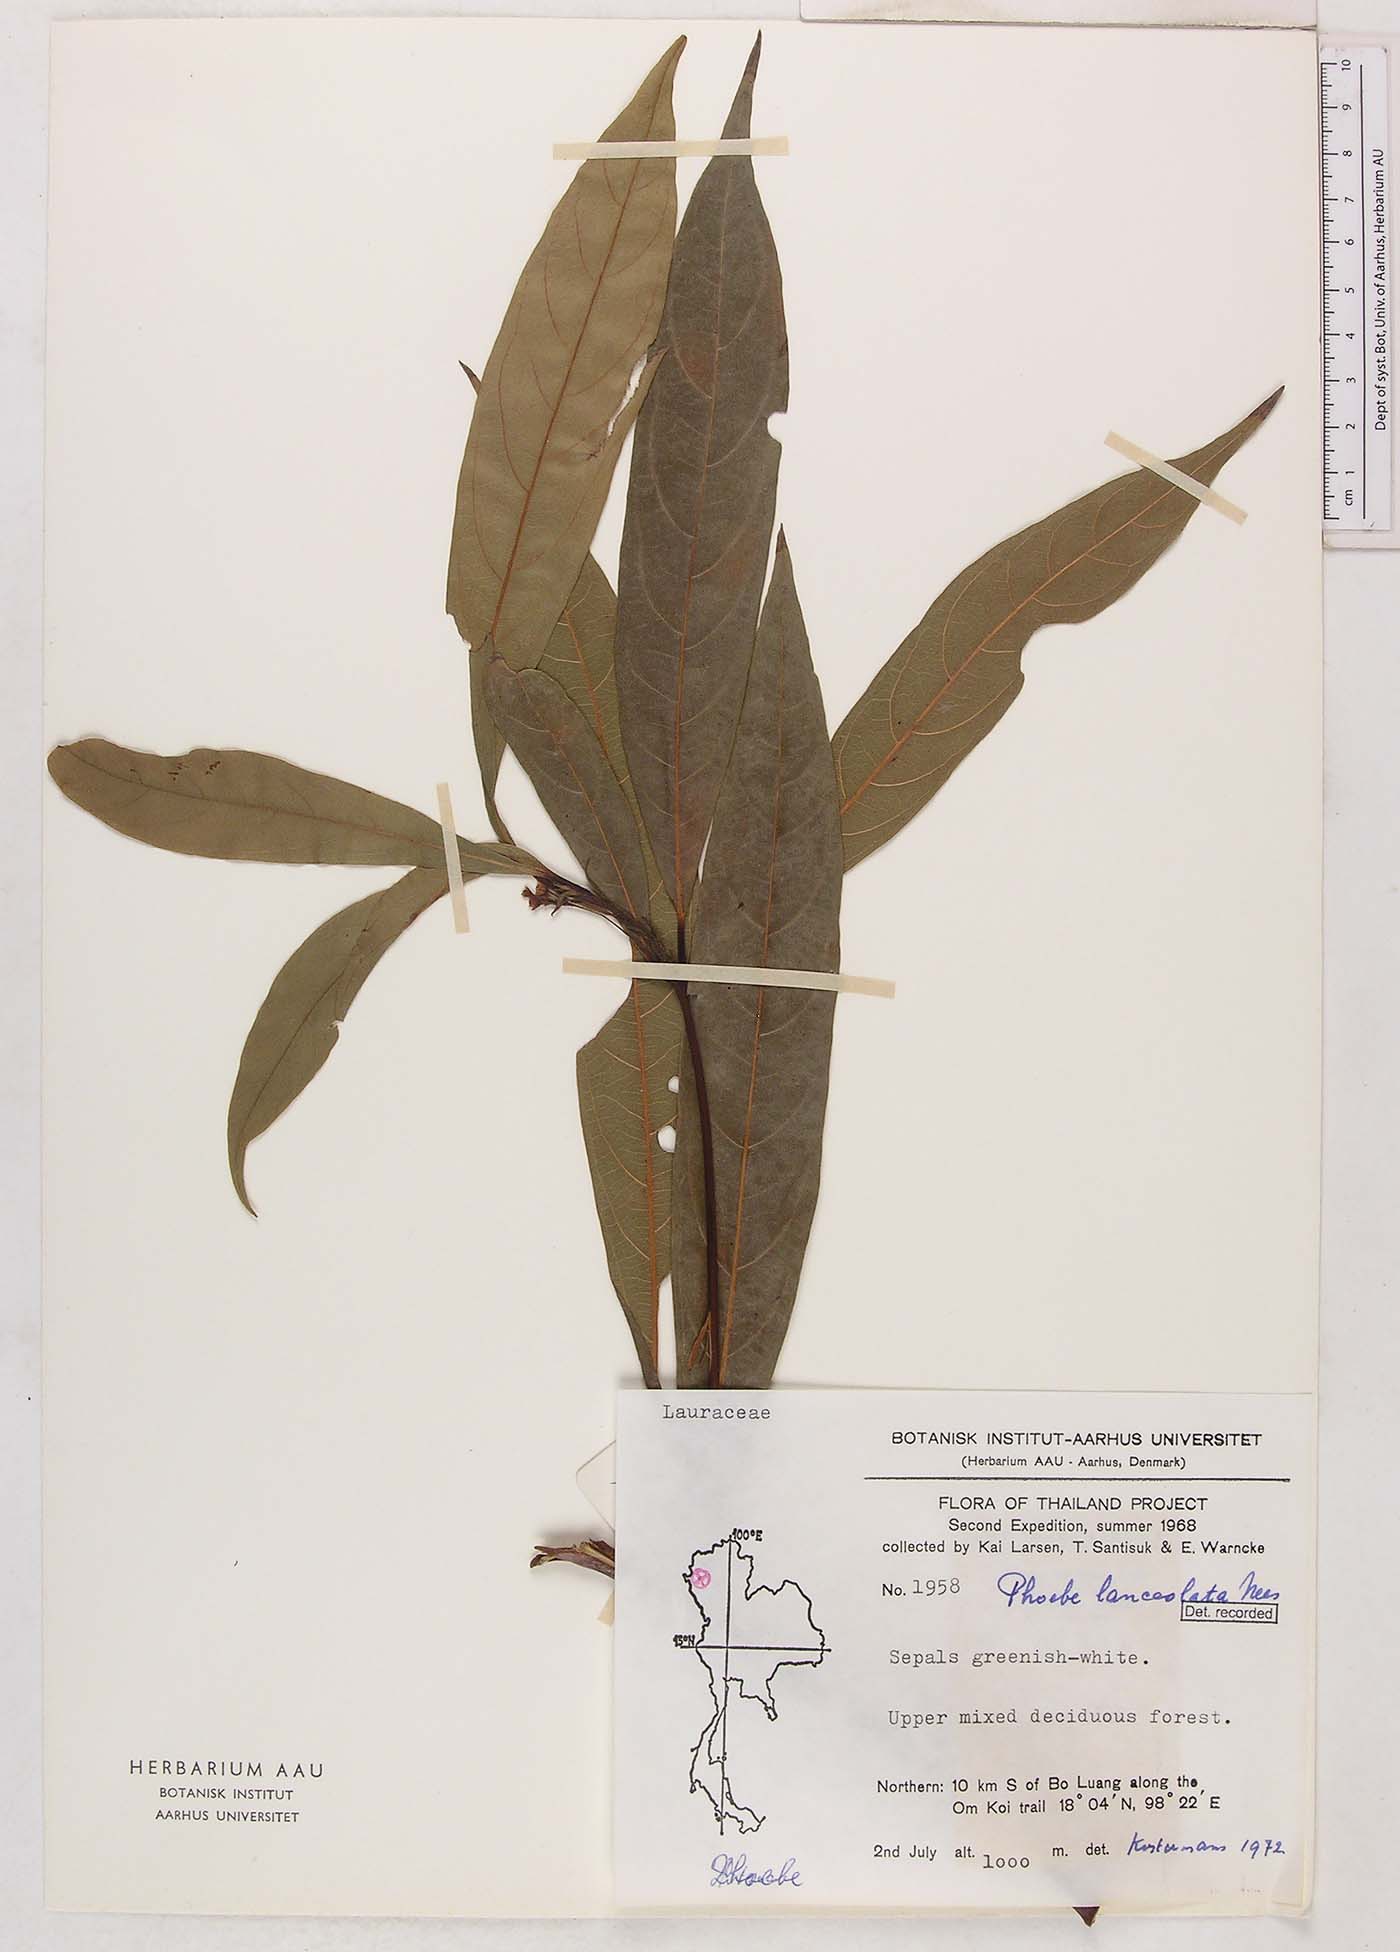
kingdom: Plantae
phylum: Tracheophyta
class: Magnoliopsida
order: Laurales
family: Lauraceae
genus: Phoebe
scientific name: Phoebe lanceolata
